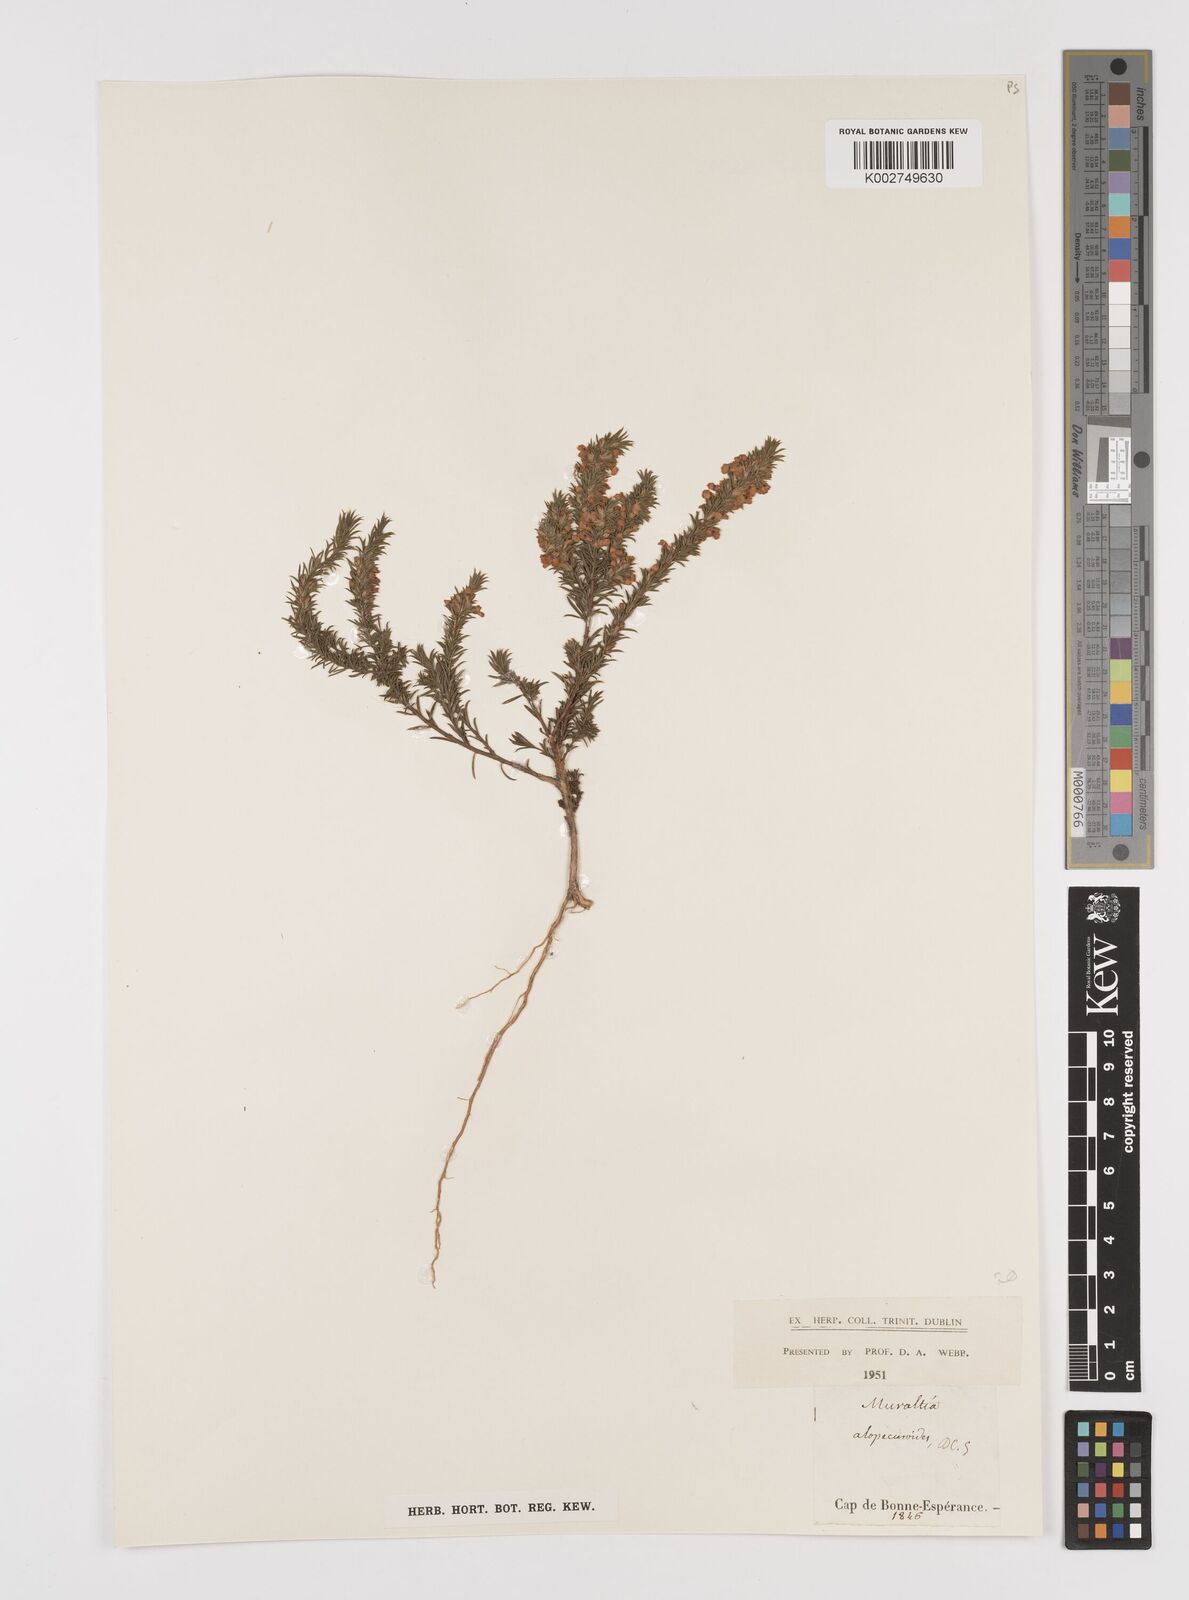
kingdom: Plantae
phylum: Tracheophyta
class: Magnoliopsida
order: Fabales
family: Polygalaceae
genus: Muraltia
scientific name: Muraltia alopecuroides
